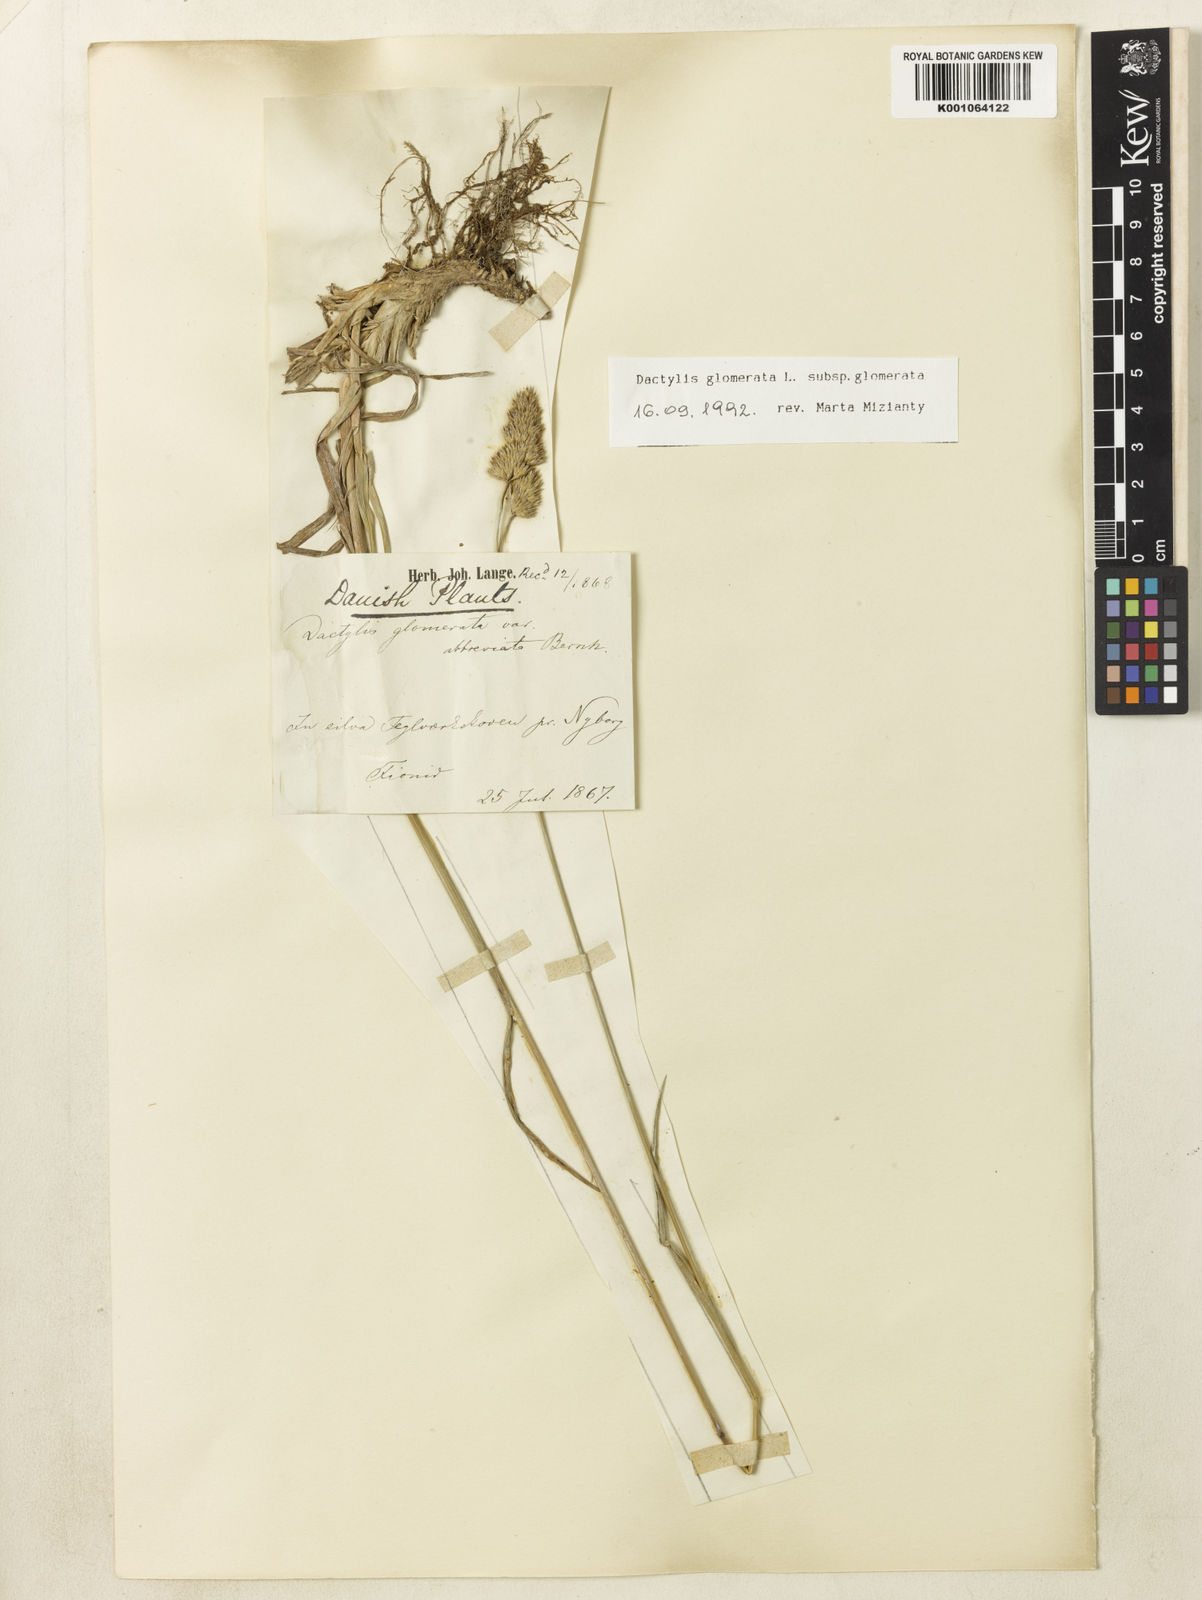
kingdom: Plantae
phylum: Tracheophyta
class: Liliopsida
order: Poales
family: Poaceae
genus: Dactylis
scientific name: Dactylis glomerata
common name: Orchardgrass
